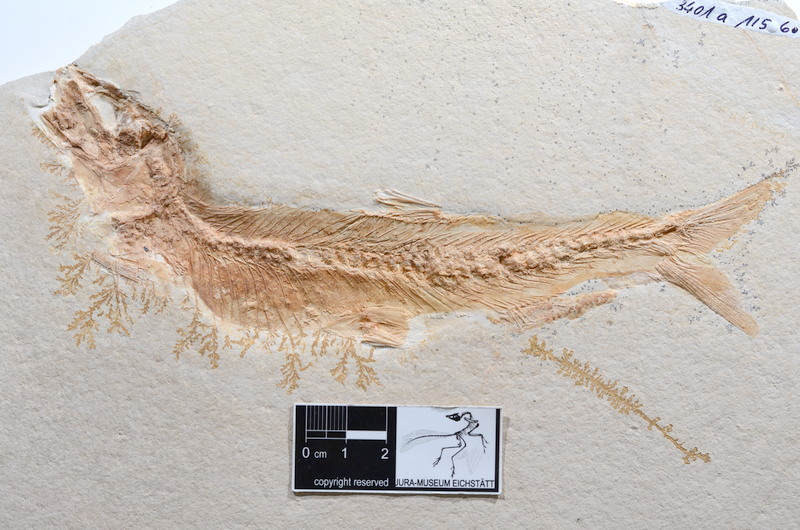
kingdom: Animalia
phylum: Chordata
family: Ascalaboidae
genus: Tharsis
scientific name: Tharsis dubius
